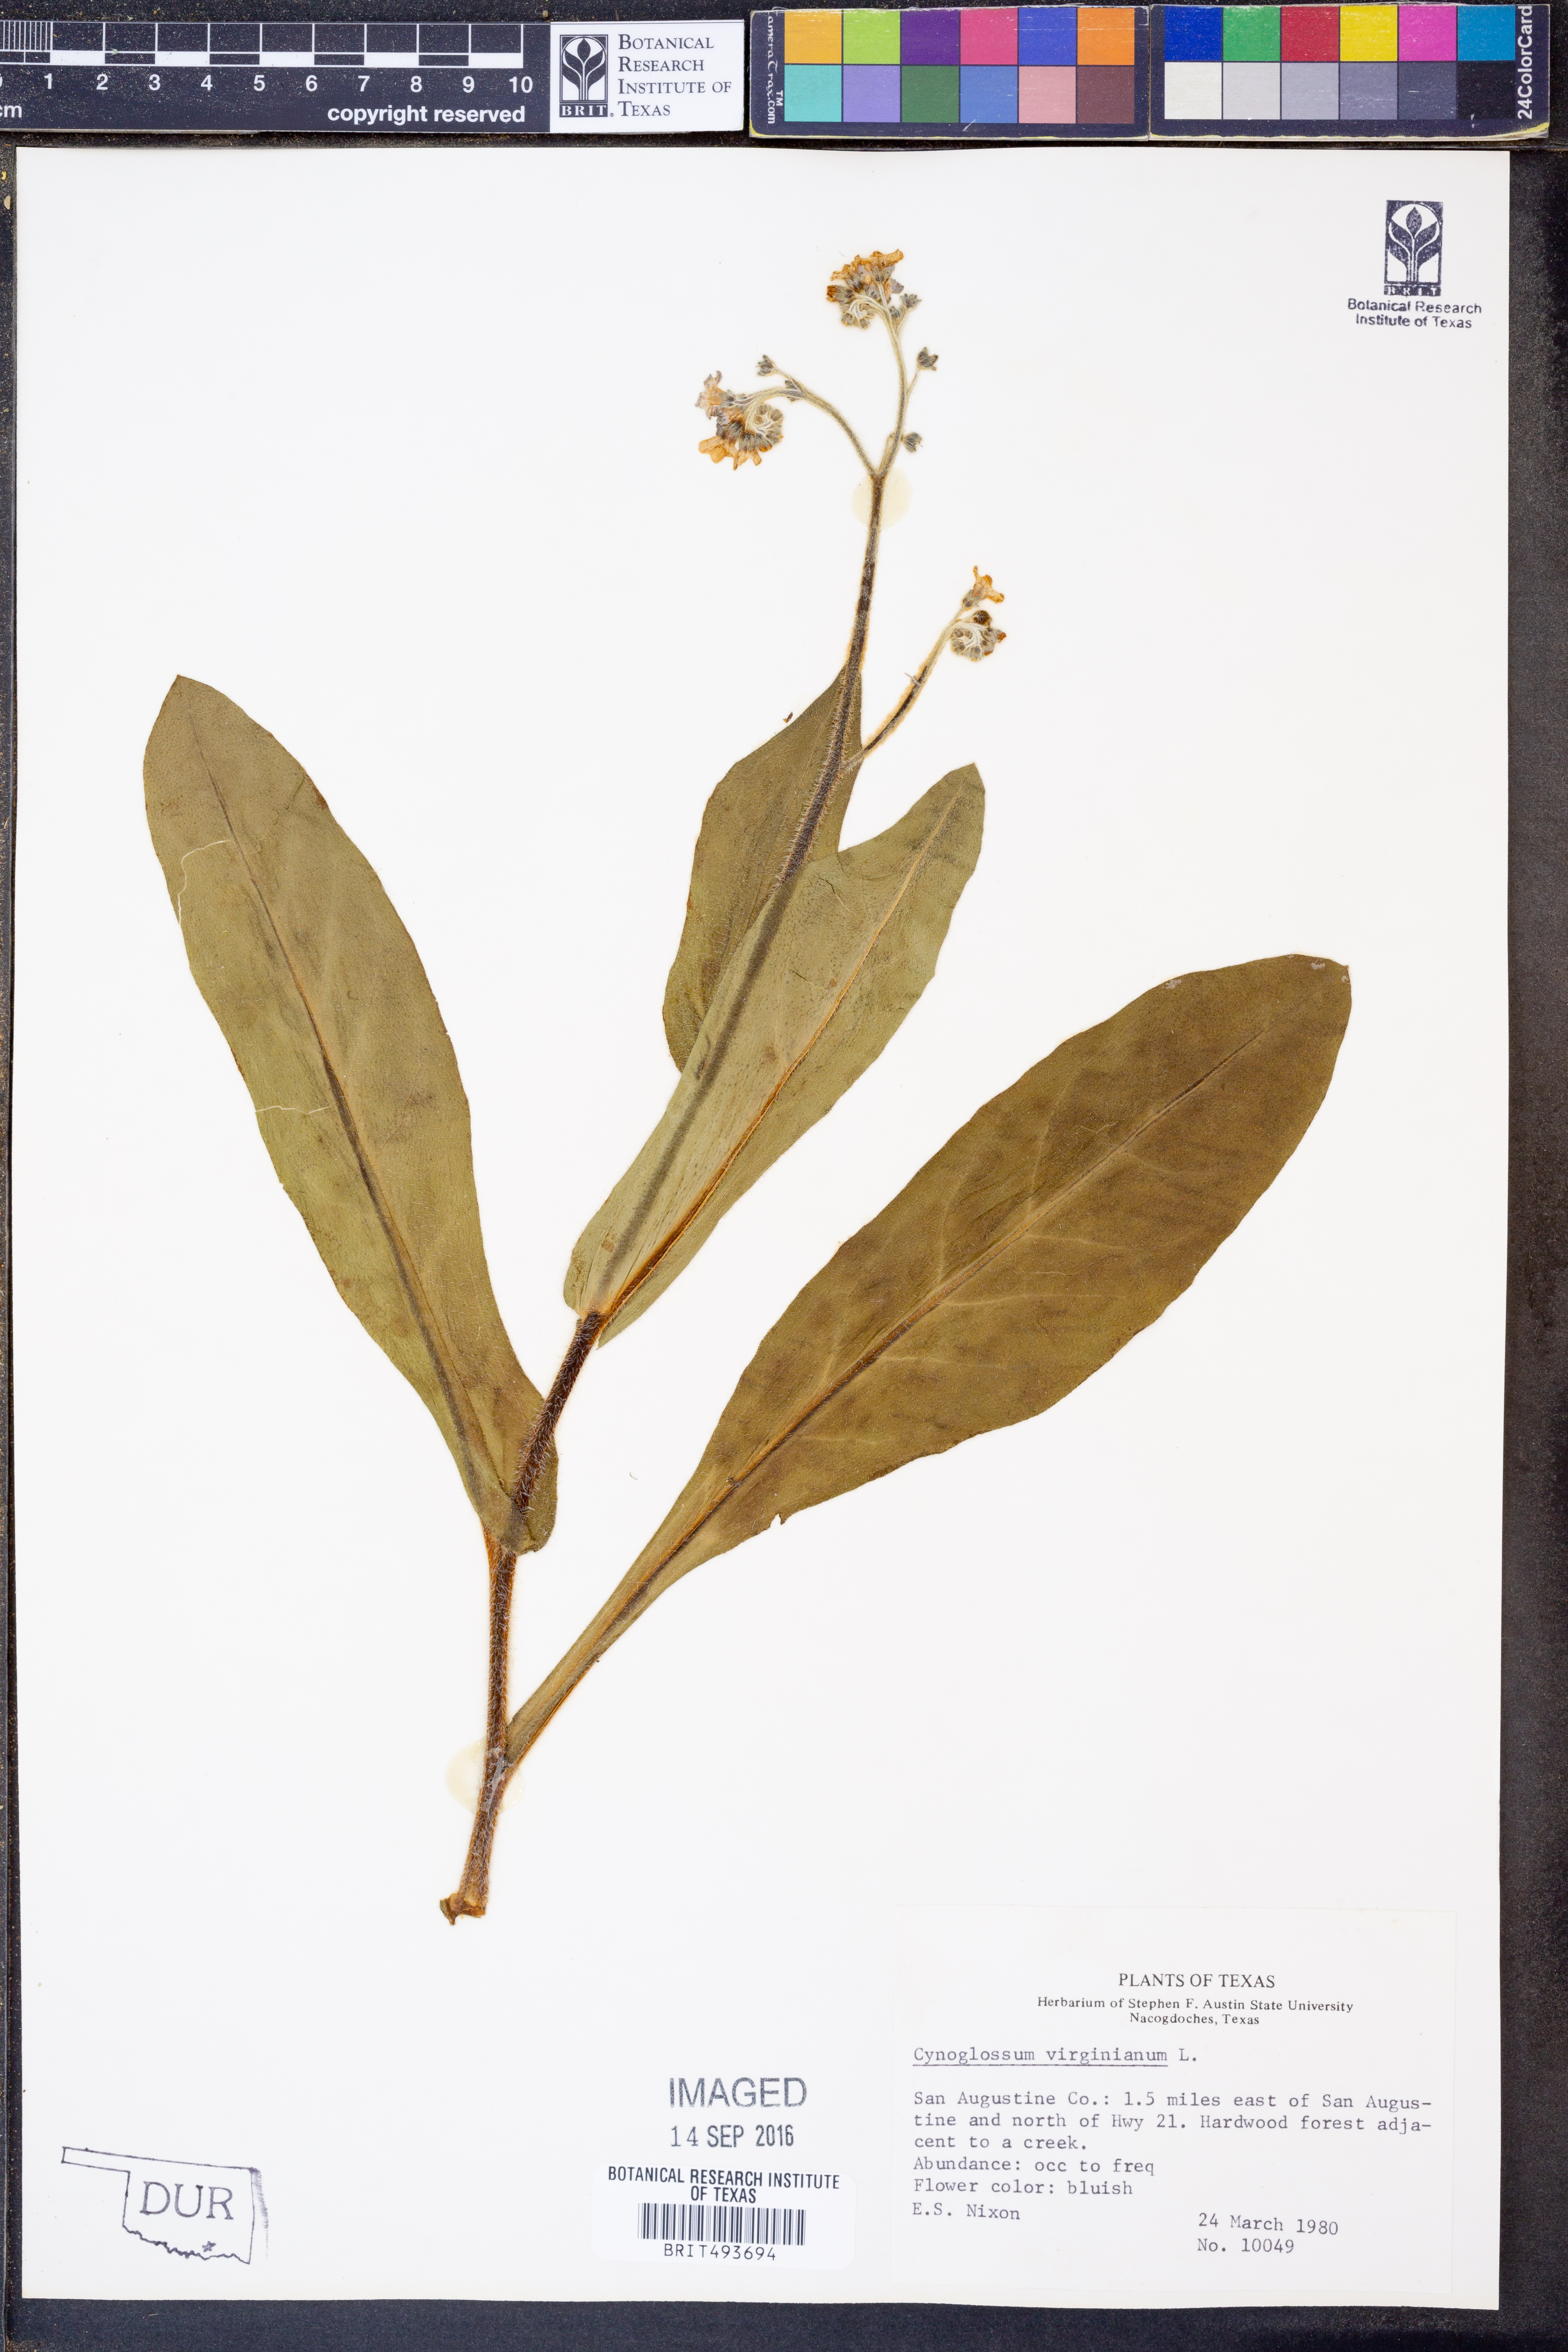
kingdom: Plantae
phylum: Tracheophyta
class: Magnoliopsida
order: Boraginales
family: Boraginaceae
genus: Andersonglossum
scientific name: Andersonglossum virginianum
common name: Wild comfrey
